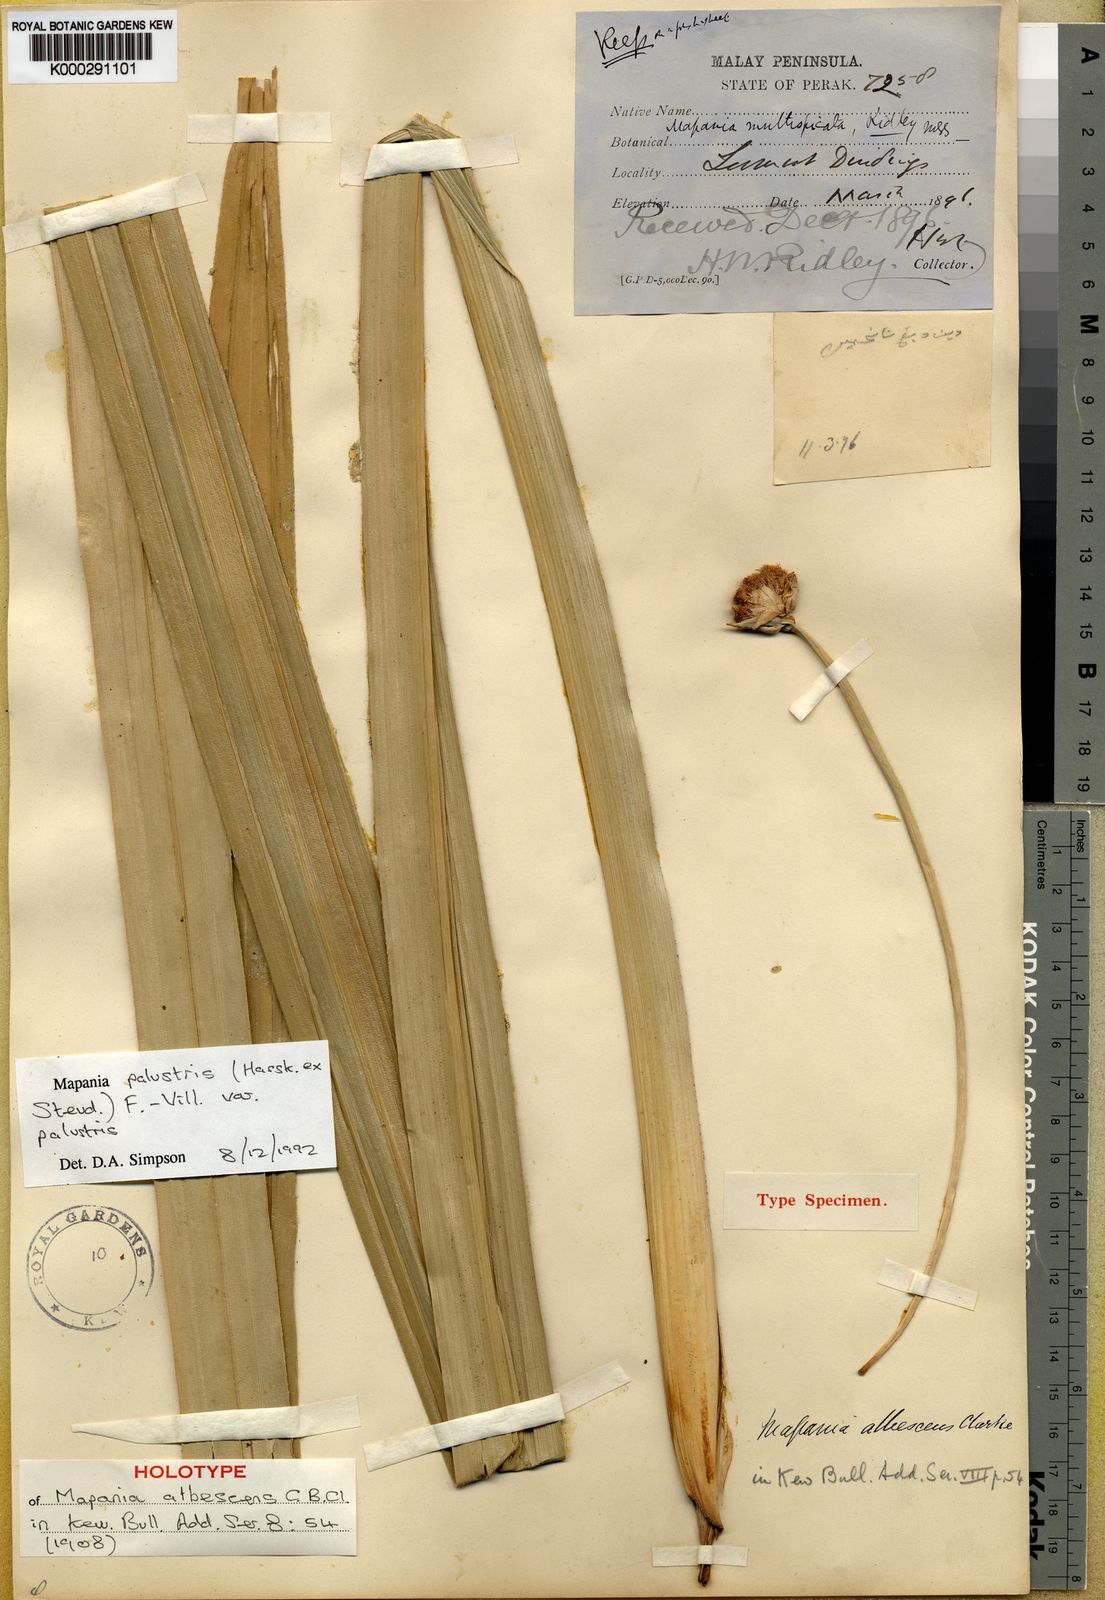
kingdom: Plantae
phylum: Tracheophyta
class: Liliopsida
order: Poales
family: Cyperaceae
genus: Mapania
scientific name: Mapania palustris
